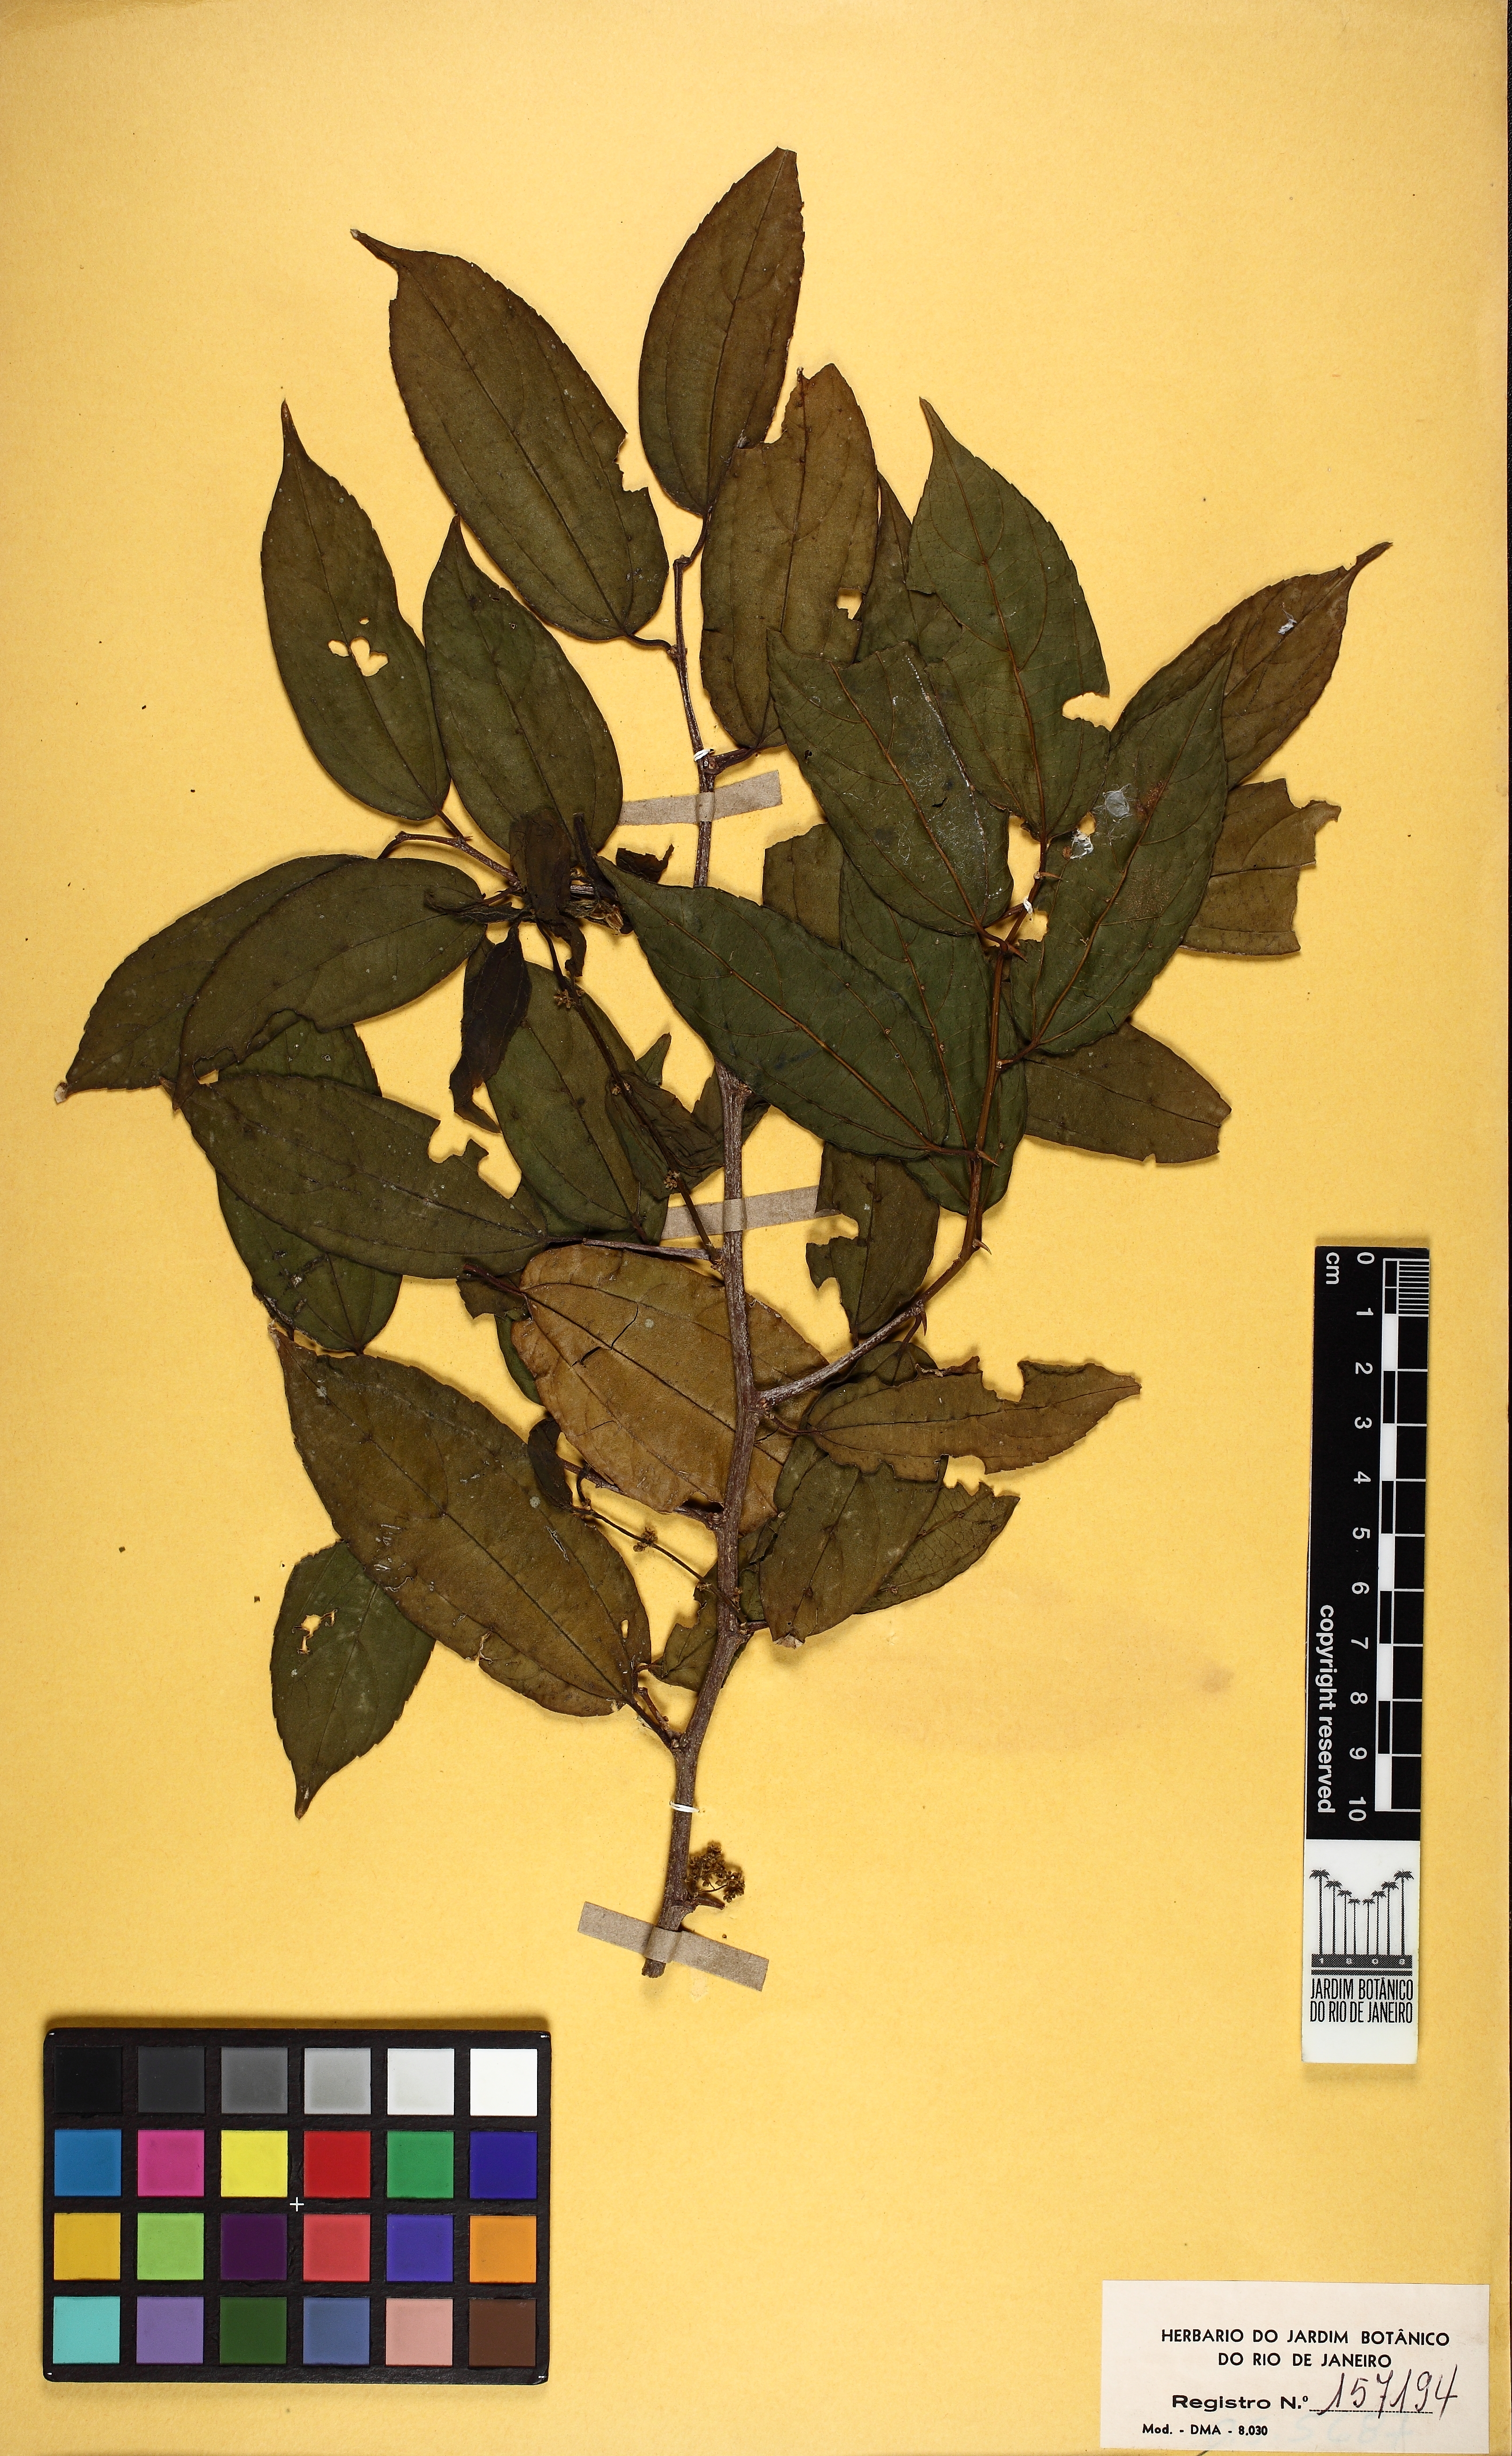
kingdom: Plantae
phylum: Tracheophyta
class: Magnoliopsida
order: Rosales
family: Cannabaceae
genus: Celtis
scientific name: Celtis iguanaea
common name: Iguana hackberry
